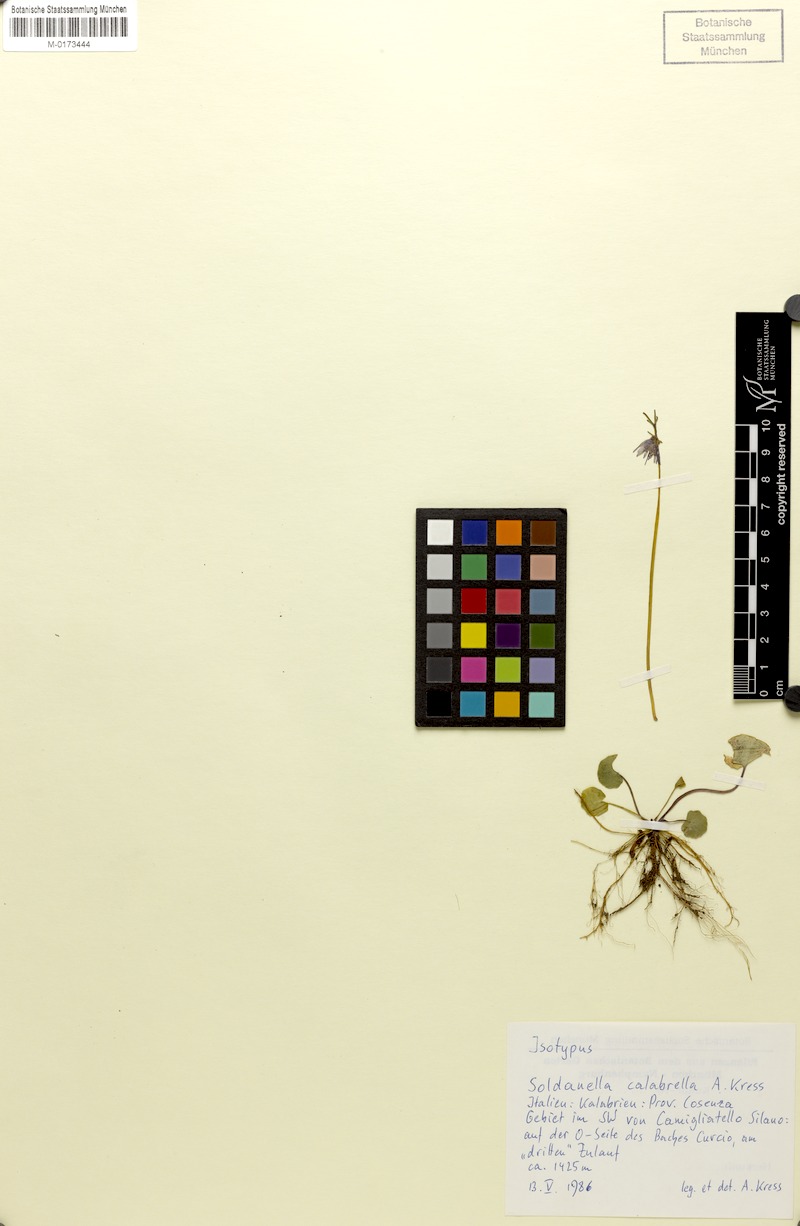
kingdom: Plantae
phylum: Tracheophyta
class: Magnoliopsida
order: Ericales
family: Primulaceae
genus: Soldanella
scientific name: Soldanella calabrella
